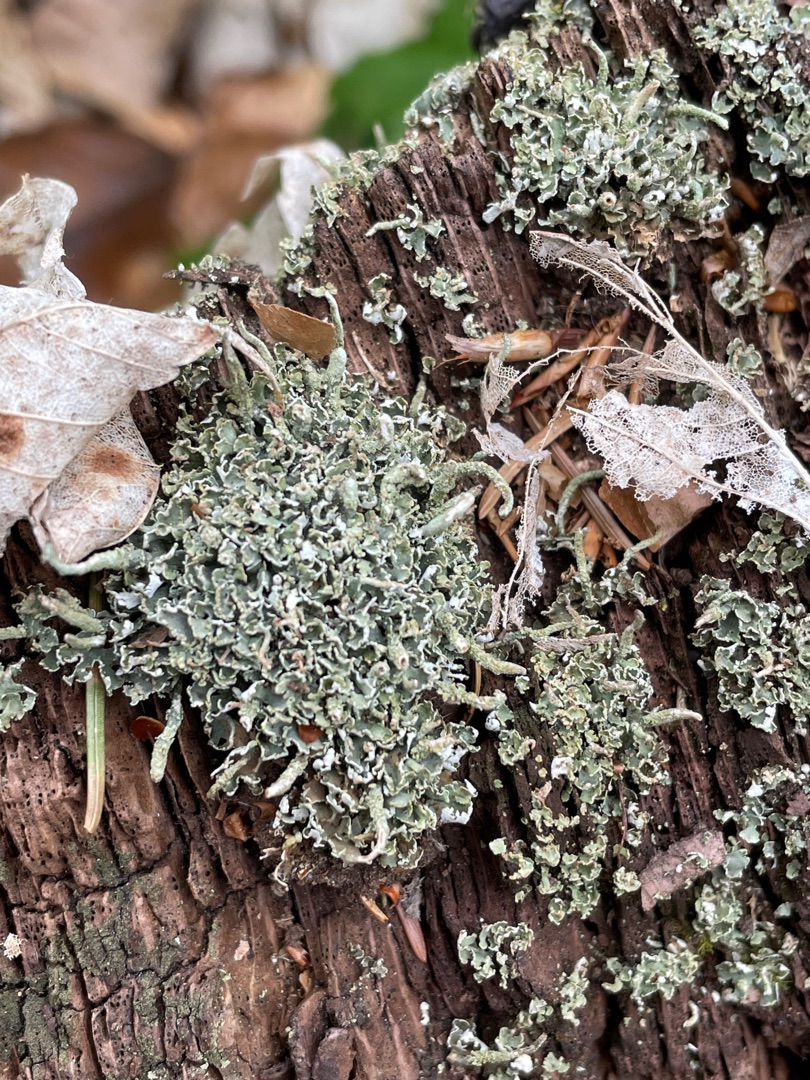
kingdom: Fungi
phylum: Ascomycota
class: Lecanoromycetes
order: Lecanorales
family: Cladoniaceae
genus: Cladonia
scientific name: Cladonia coniocraea
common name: Træfods-bægerlav
